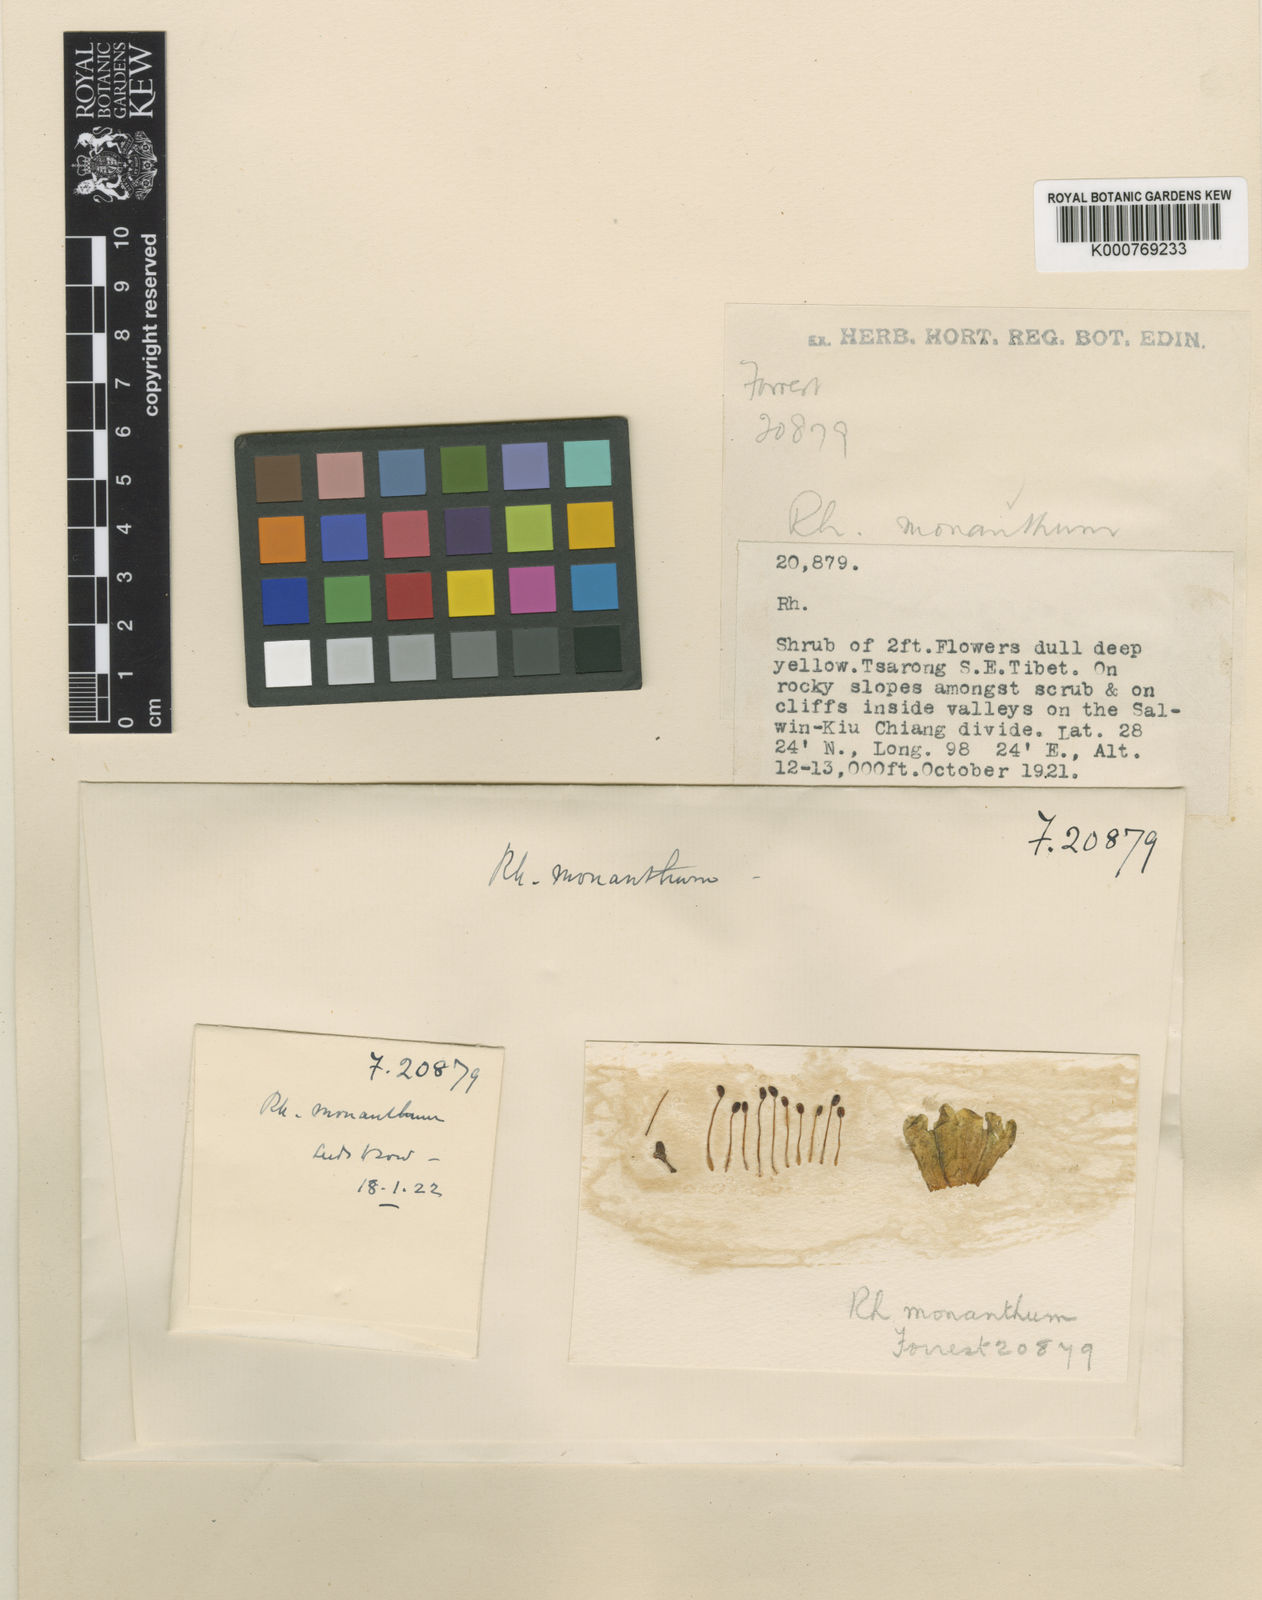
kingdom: Plantae
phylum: Tracheophyta
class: Magnoliopsida
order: Ericales
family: Ericaceae
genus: Rhododendron
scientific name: Rhododendron monanthum
